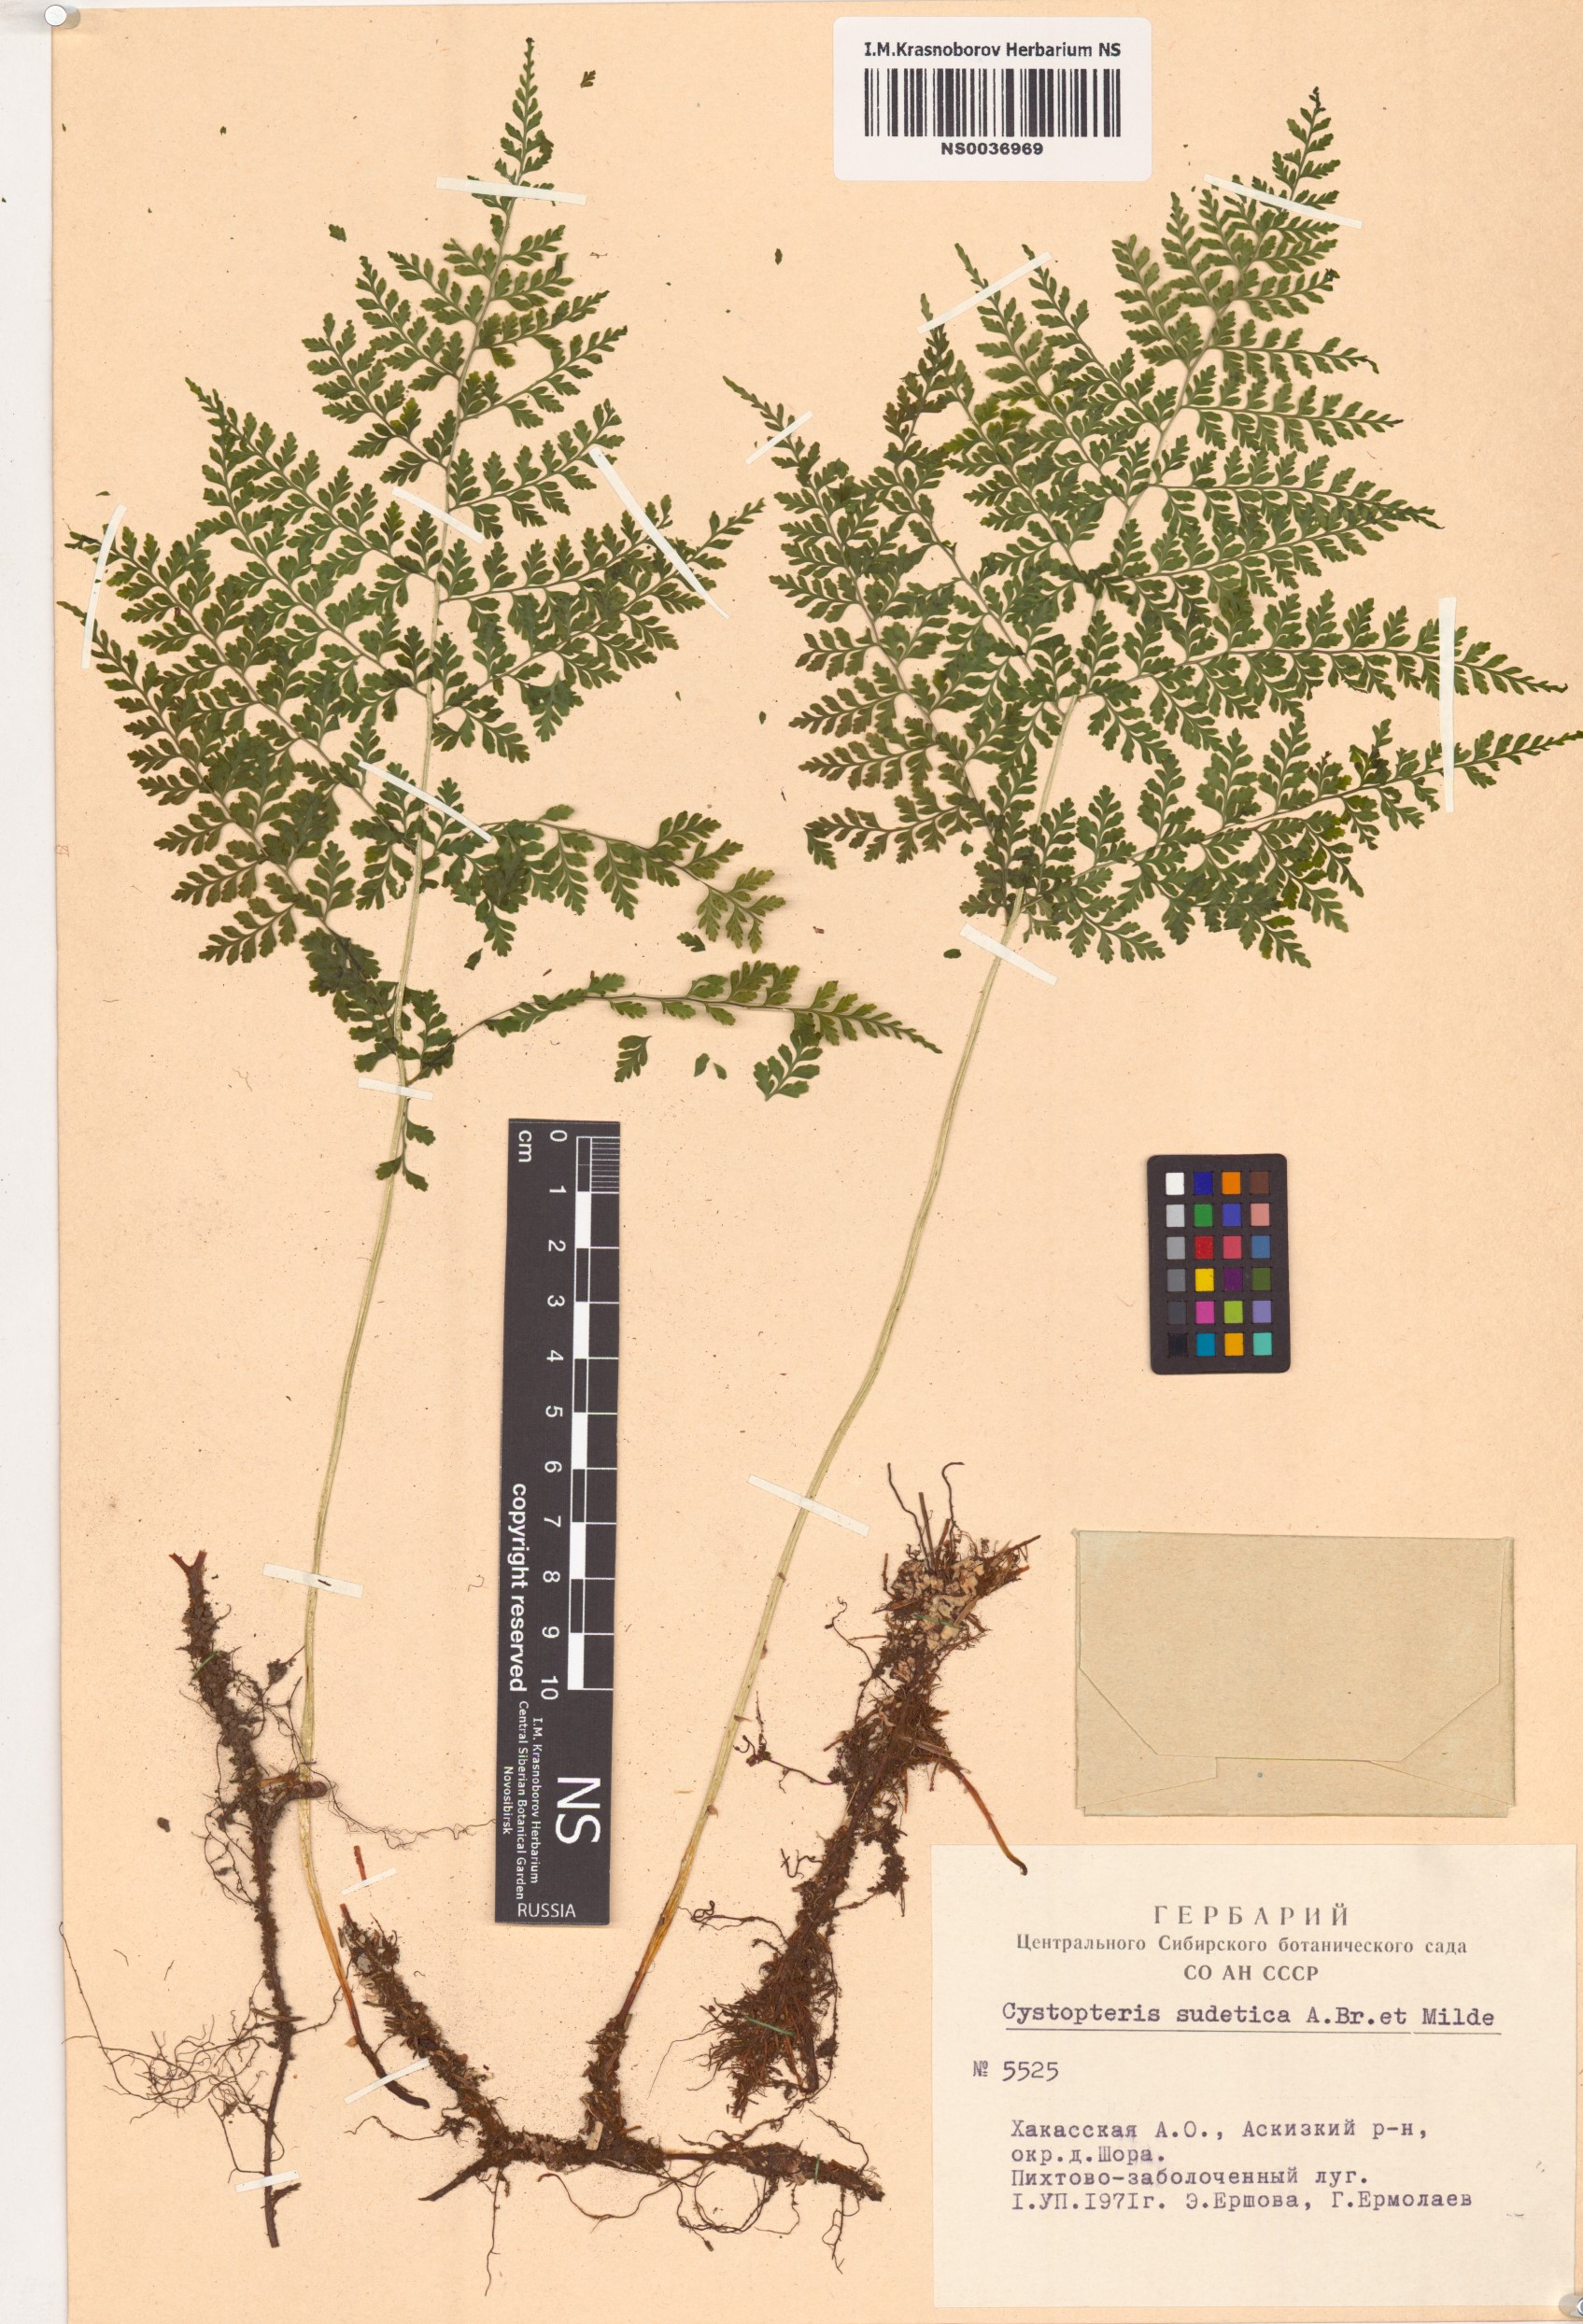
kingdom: Plantae
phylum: Tracheophyta
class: Polypodiopsida
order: Polypodiales
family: Cystopteridaceae
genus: Cystopteris
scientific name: Cystopteris sudetica
